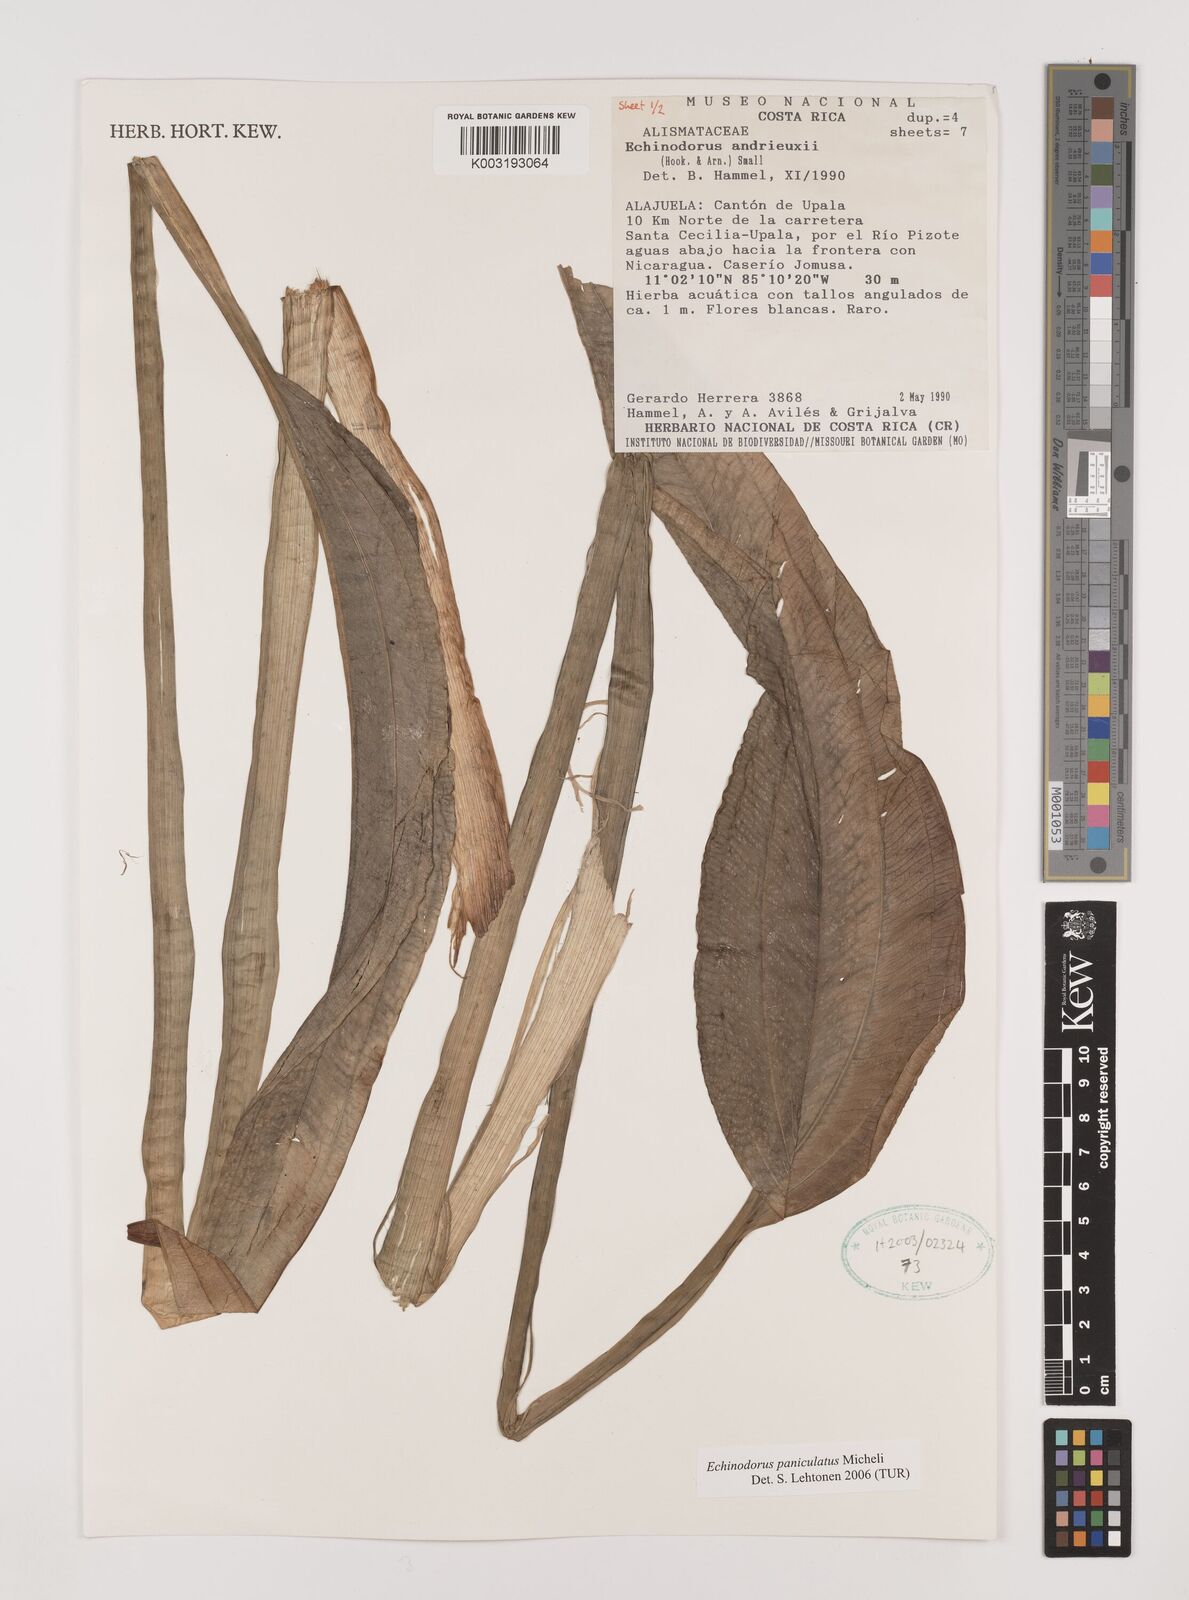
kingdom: Plantae
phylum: Tracheophyta
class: Liliopsida
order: Alismatales
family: Alismataceae
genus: Aquarius
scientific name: Aquarius paniculatus
